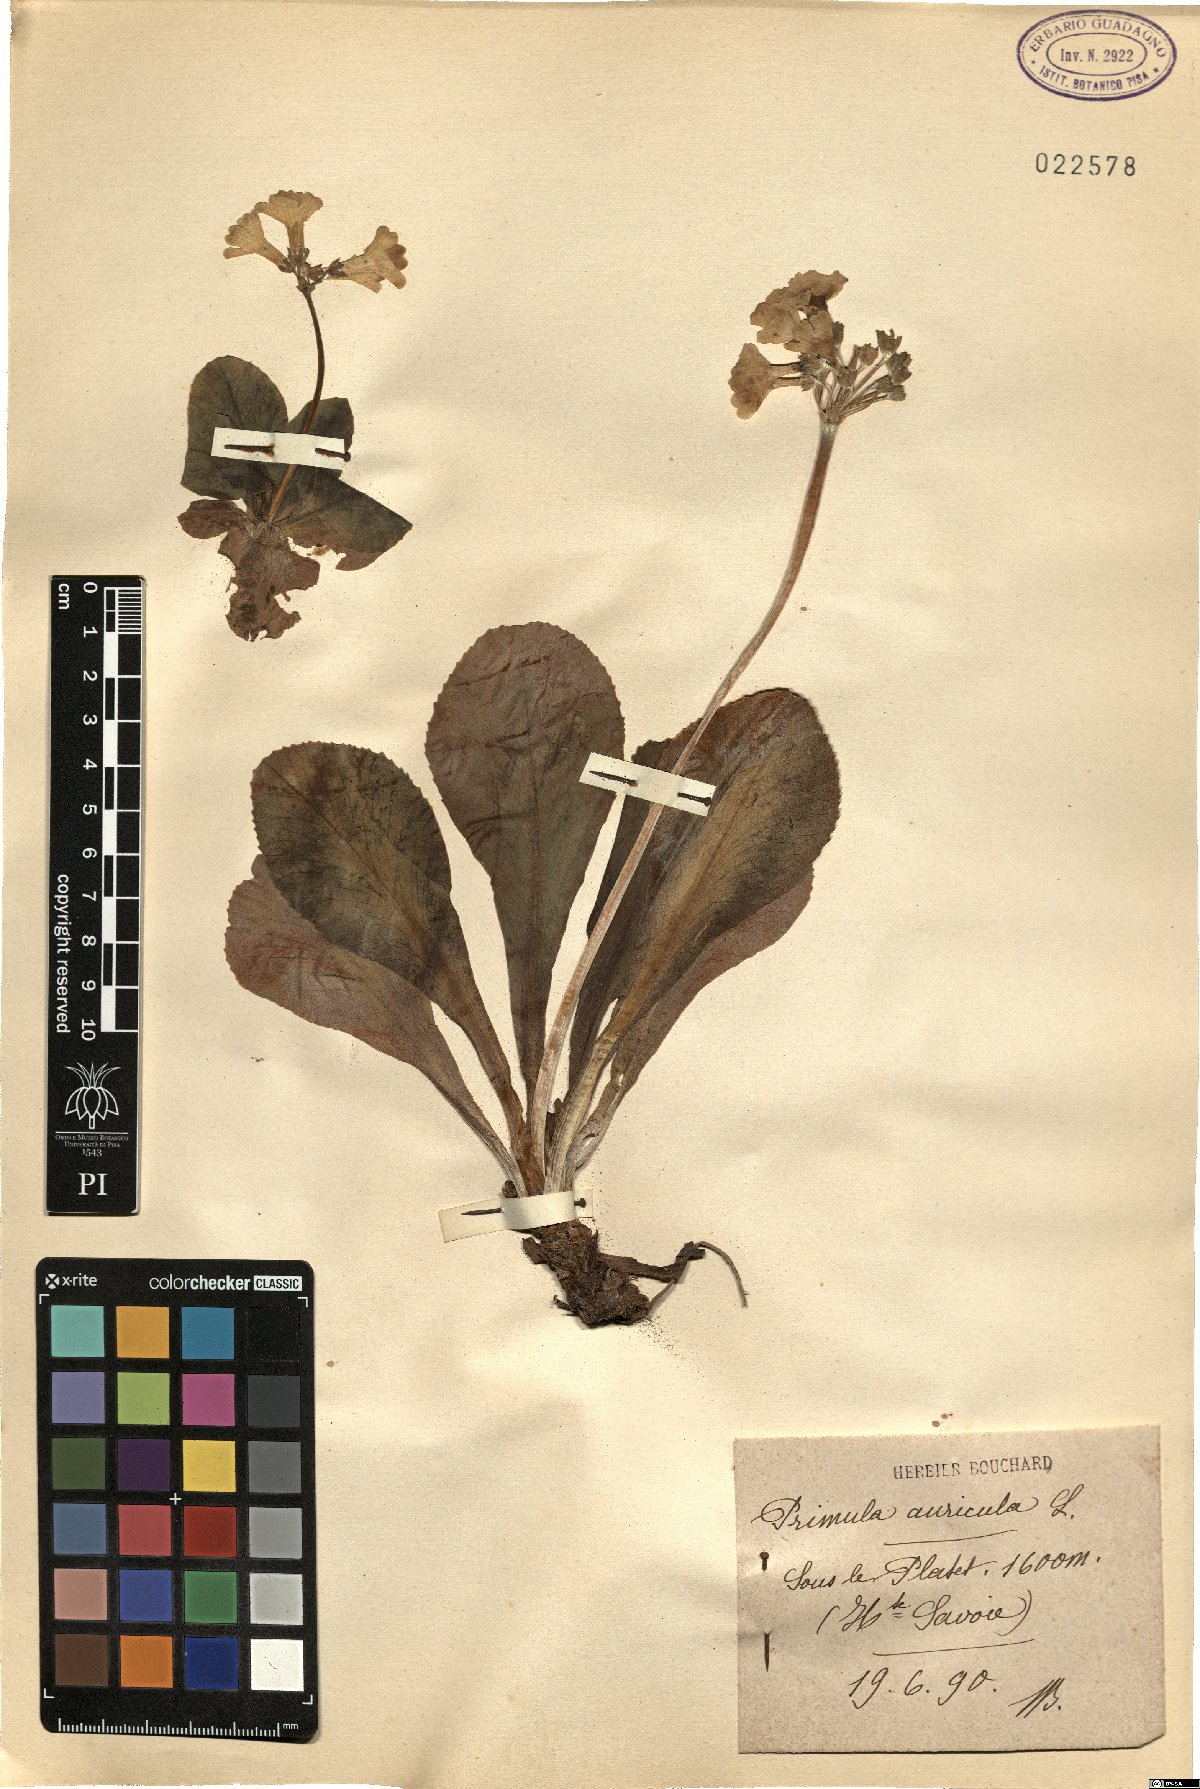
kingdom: Plantae
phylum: Tracheophyta
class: Magnoliopsida
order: Ericales
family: Primulaceae
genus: Primula
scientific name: Primula auricula
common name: Auricula
